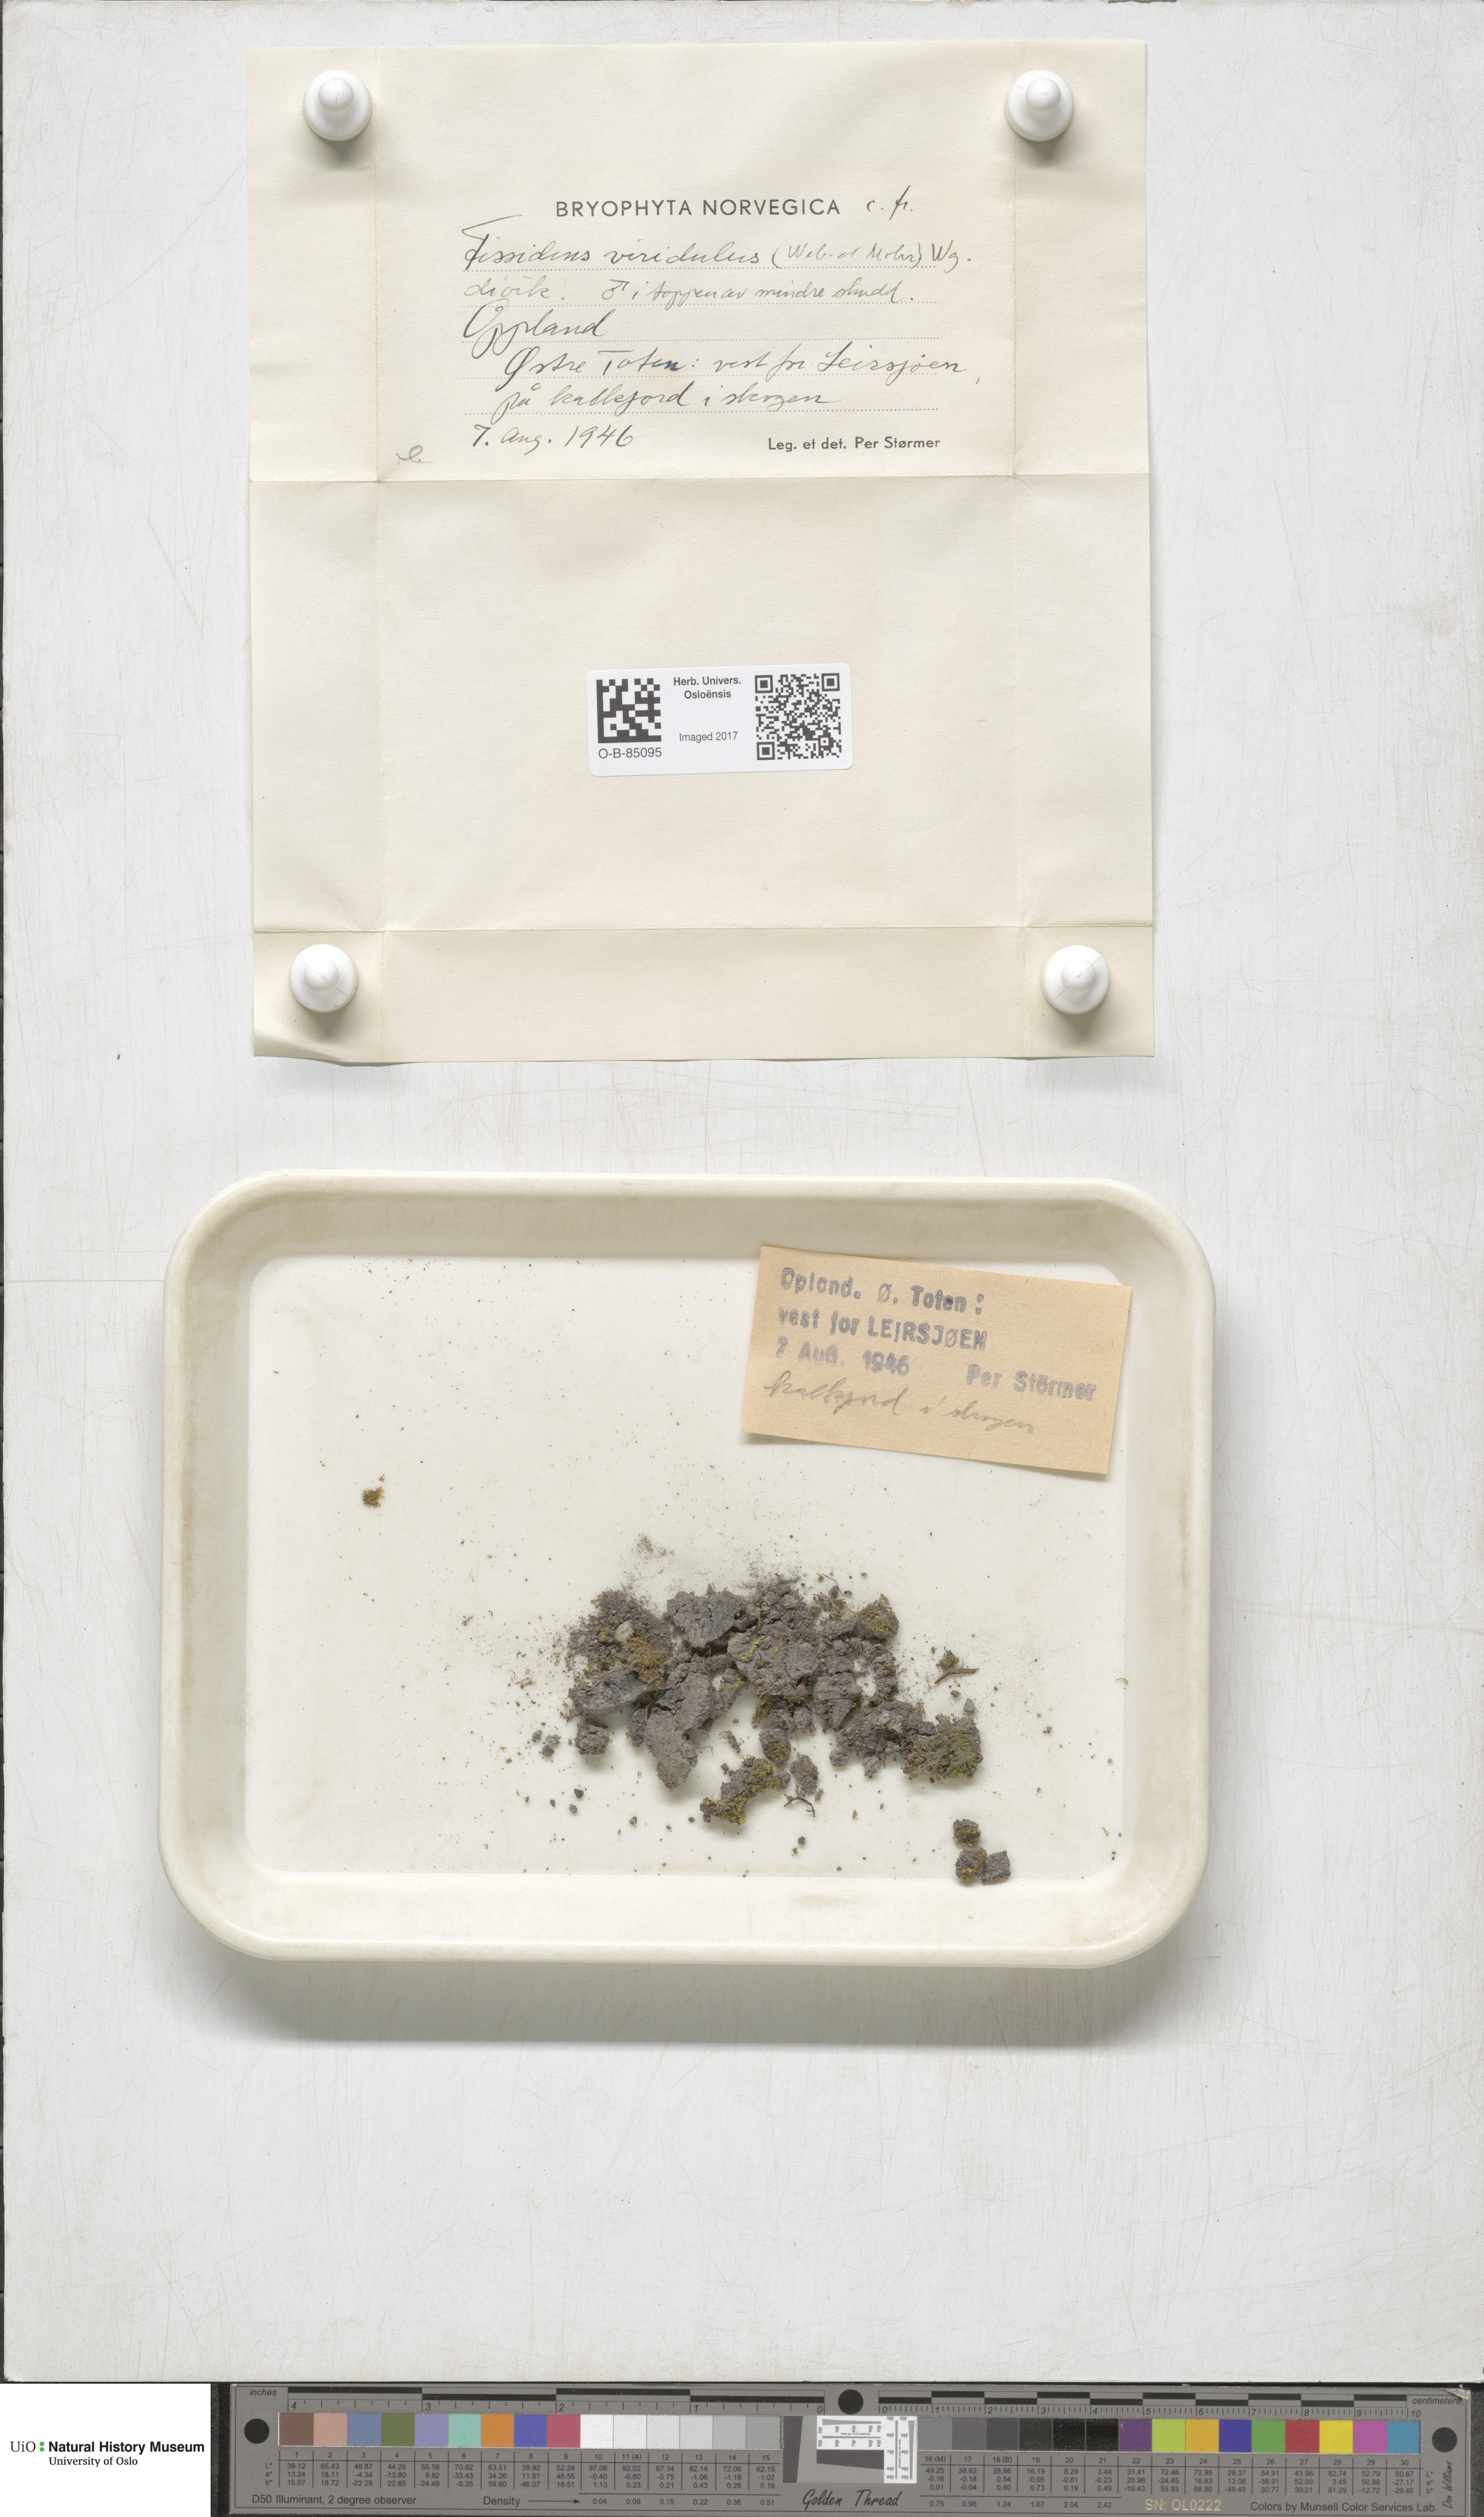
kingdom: Plantae
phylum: Bryophyta
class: Bryopsida
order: Dicranales
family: Fissidentaceae
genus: Fissidens
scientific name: Fissidens viridulus
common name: Green pocket-moss
